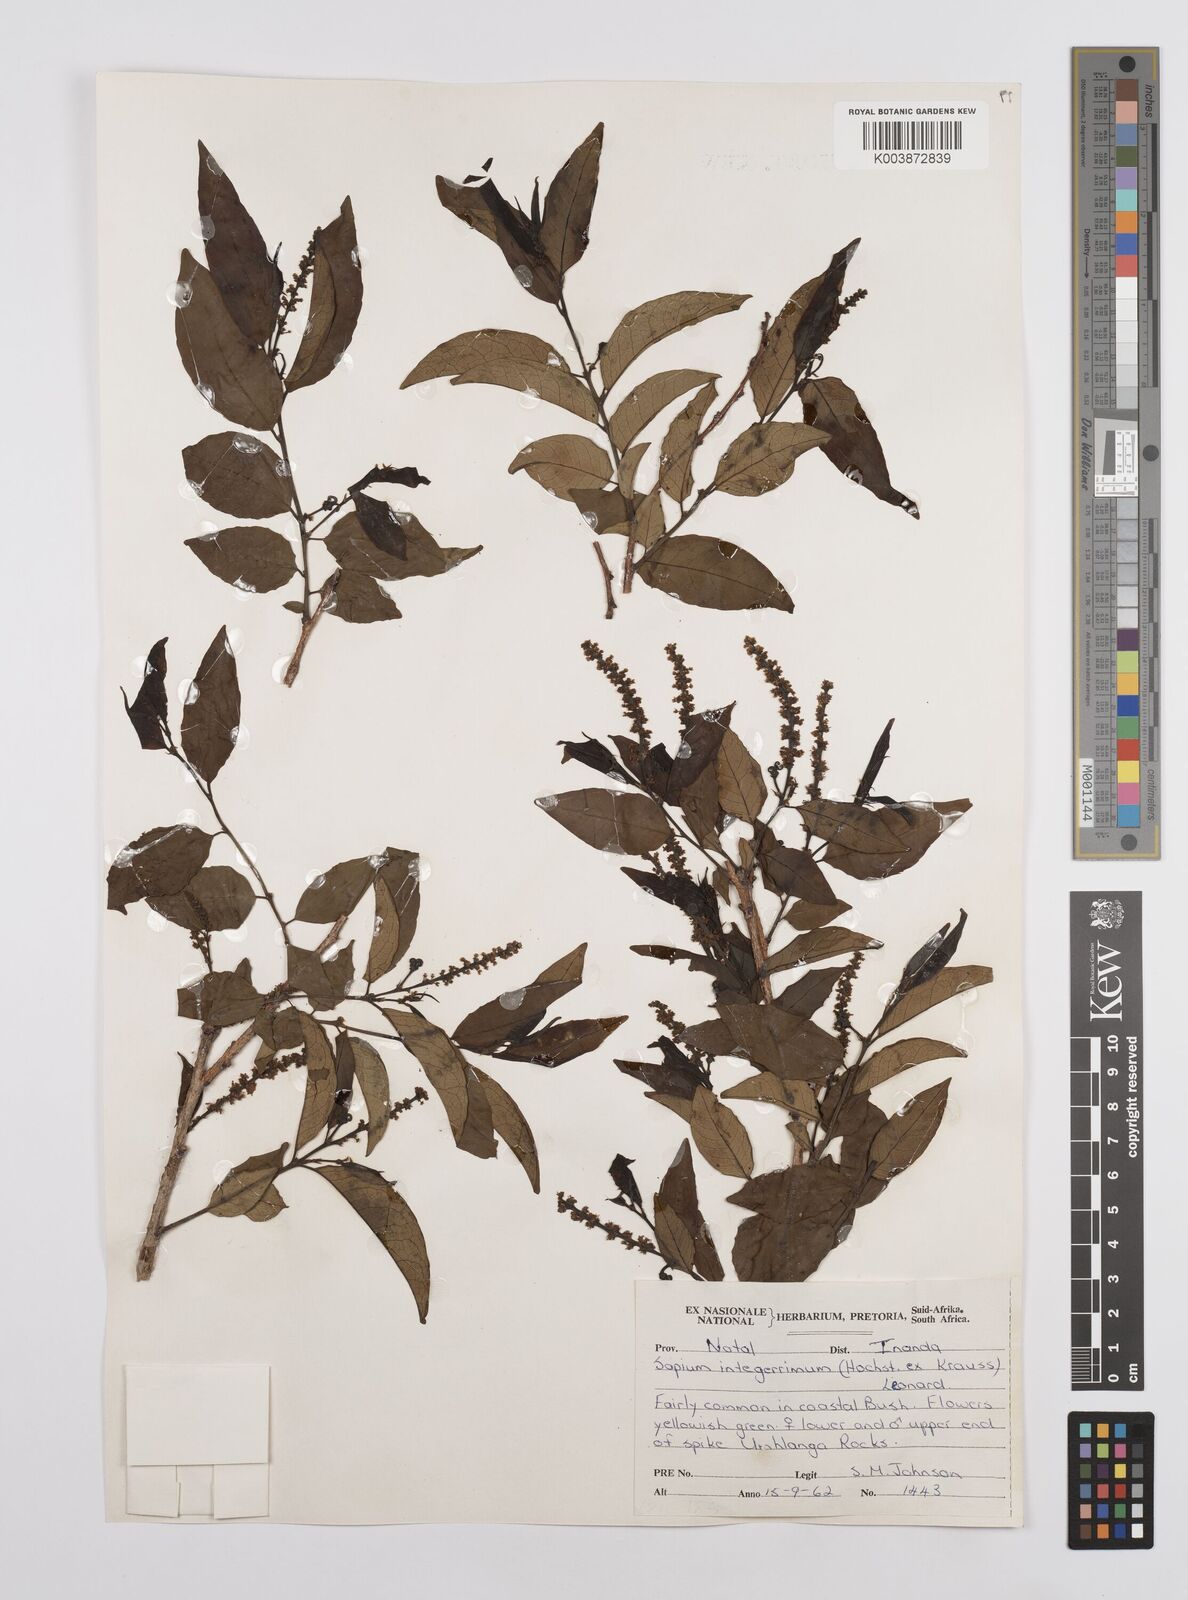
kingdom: Plantae
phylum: Tracheophyta
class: Magnoliopsida
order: Malpighiales
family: Euphorbiaceae
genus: Sclerocroton
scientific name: Sclerocroton integerrimus
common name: Duiker berry
